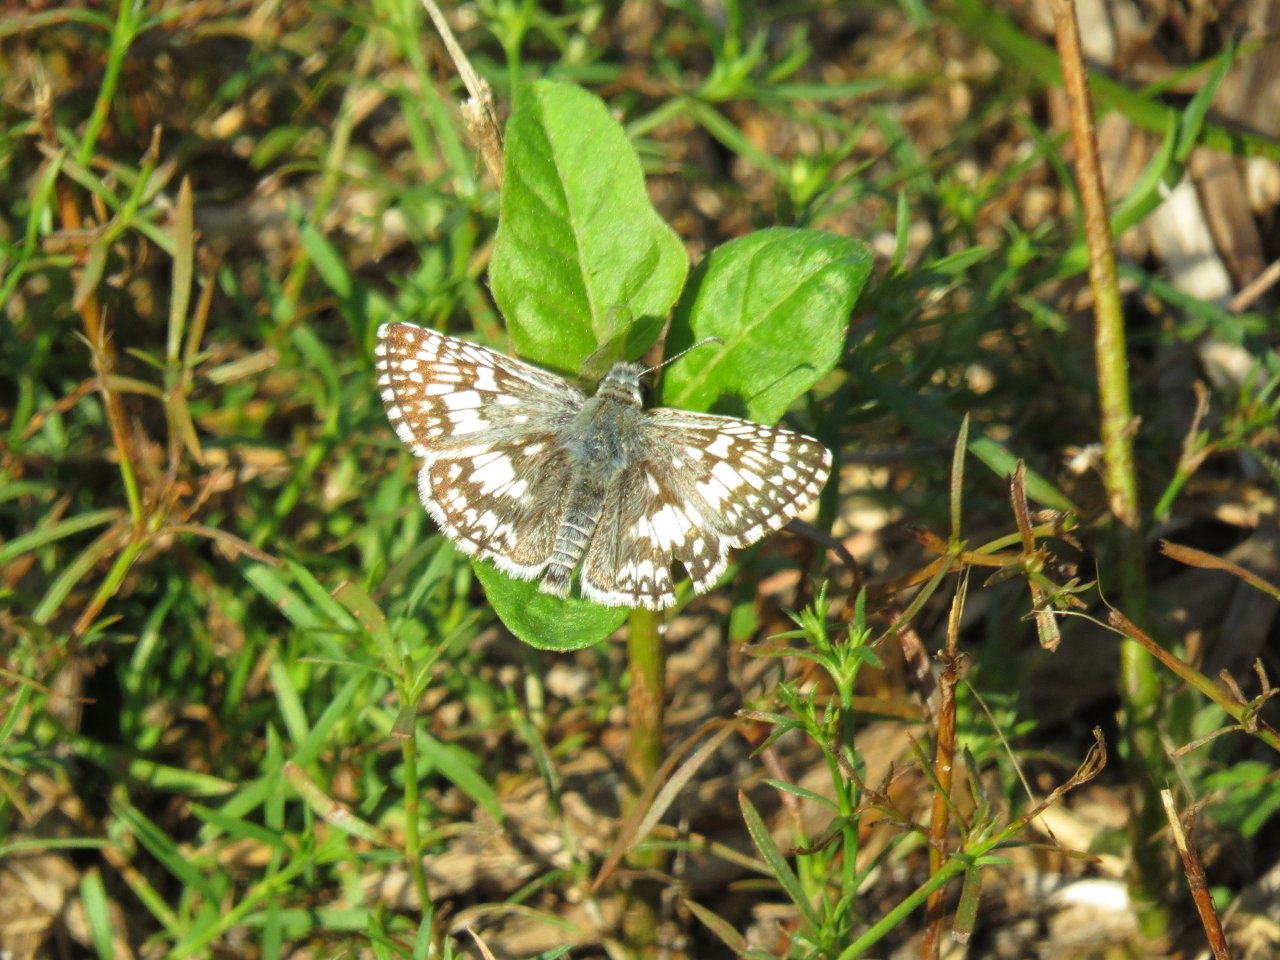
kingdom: Animalia
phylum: Arthropoda
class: Insecta
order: Lepidoptera
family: Hesperiidae
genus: Pyrgus
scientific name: Pyrgus communis
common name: White Checkered-Skipper
